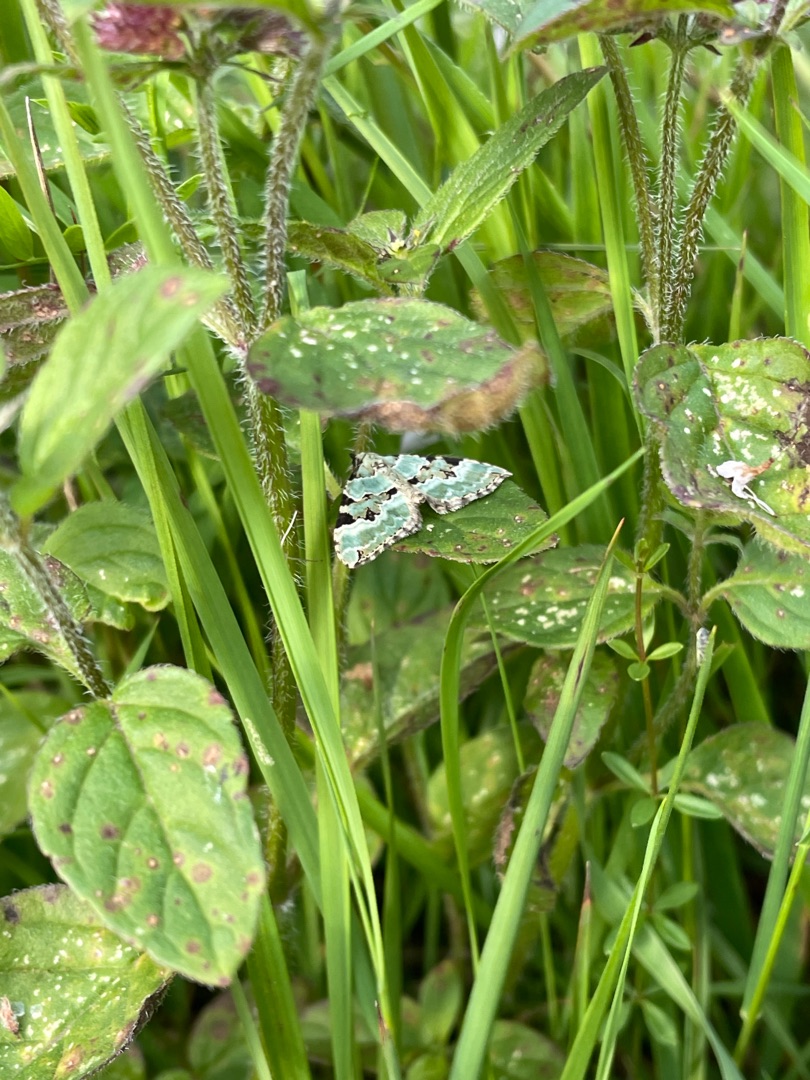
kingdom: Animalia
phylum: Arthropoda
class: Insecta
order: Lepidoptera
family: Geometridae
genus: Colostygia
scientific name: Colostygia pectinataria
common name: Grøn bladmåler
